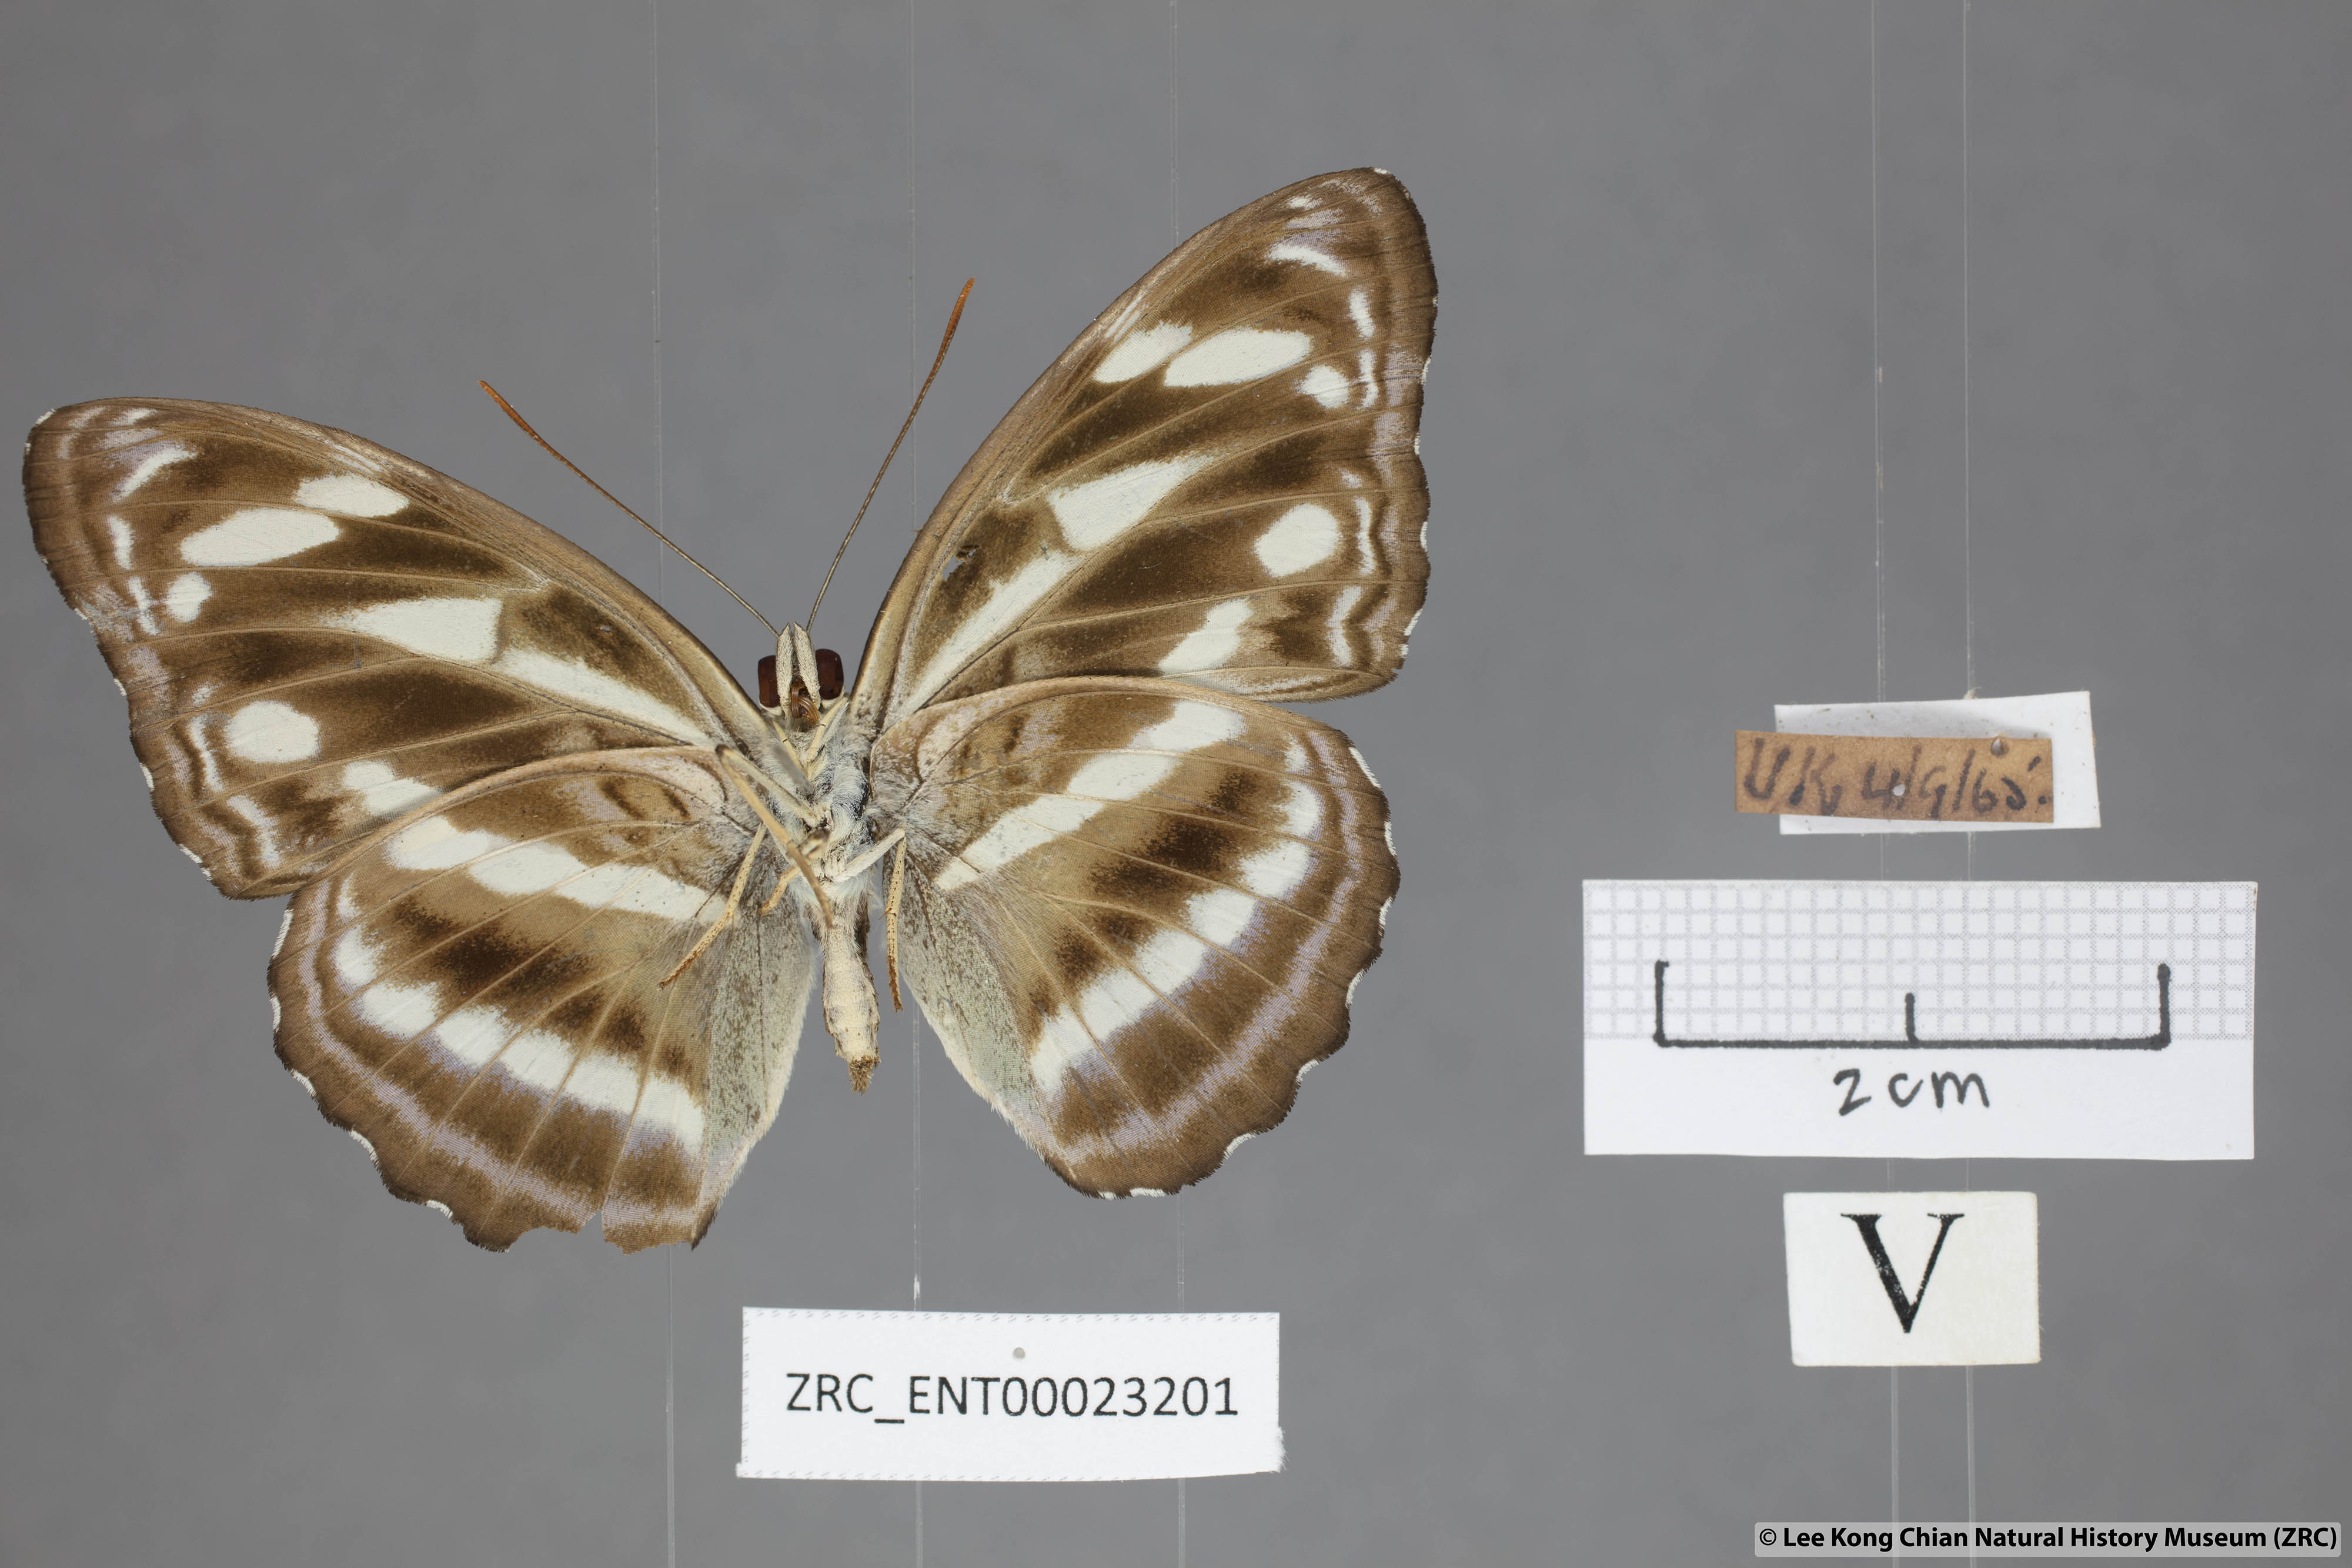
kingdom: Animalia
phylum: Arthropoda
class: Insecta
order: Lepidoptera
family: Nymphalidae
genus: Parathyma
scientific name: Parathyma kanwa
